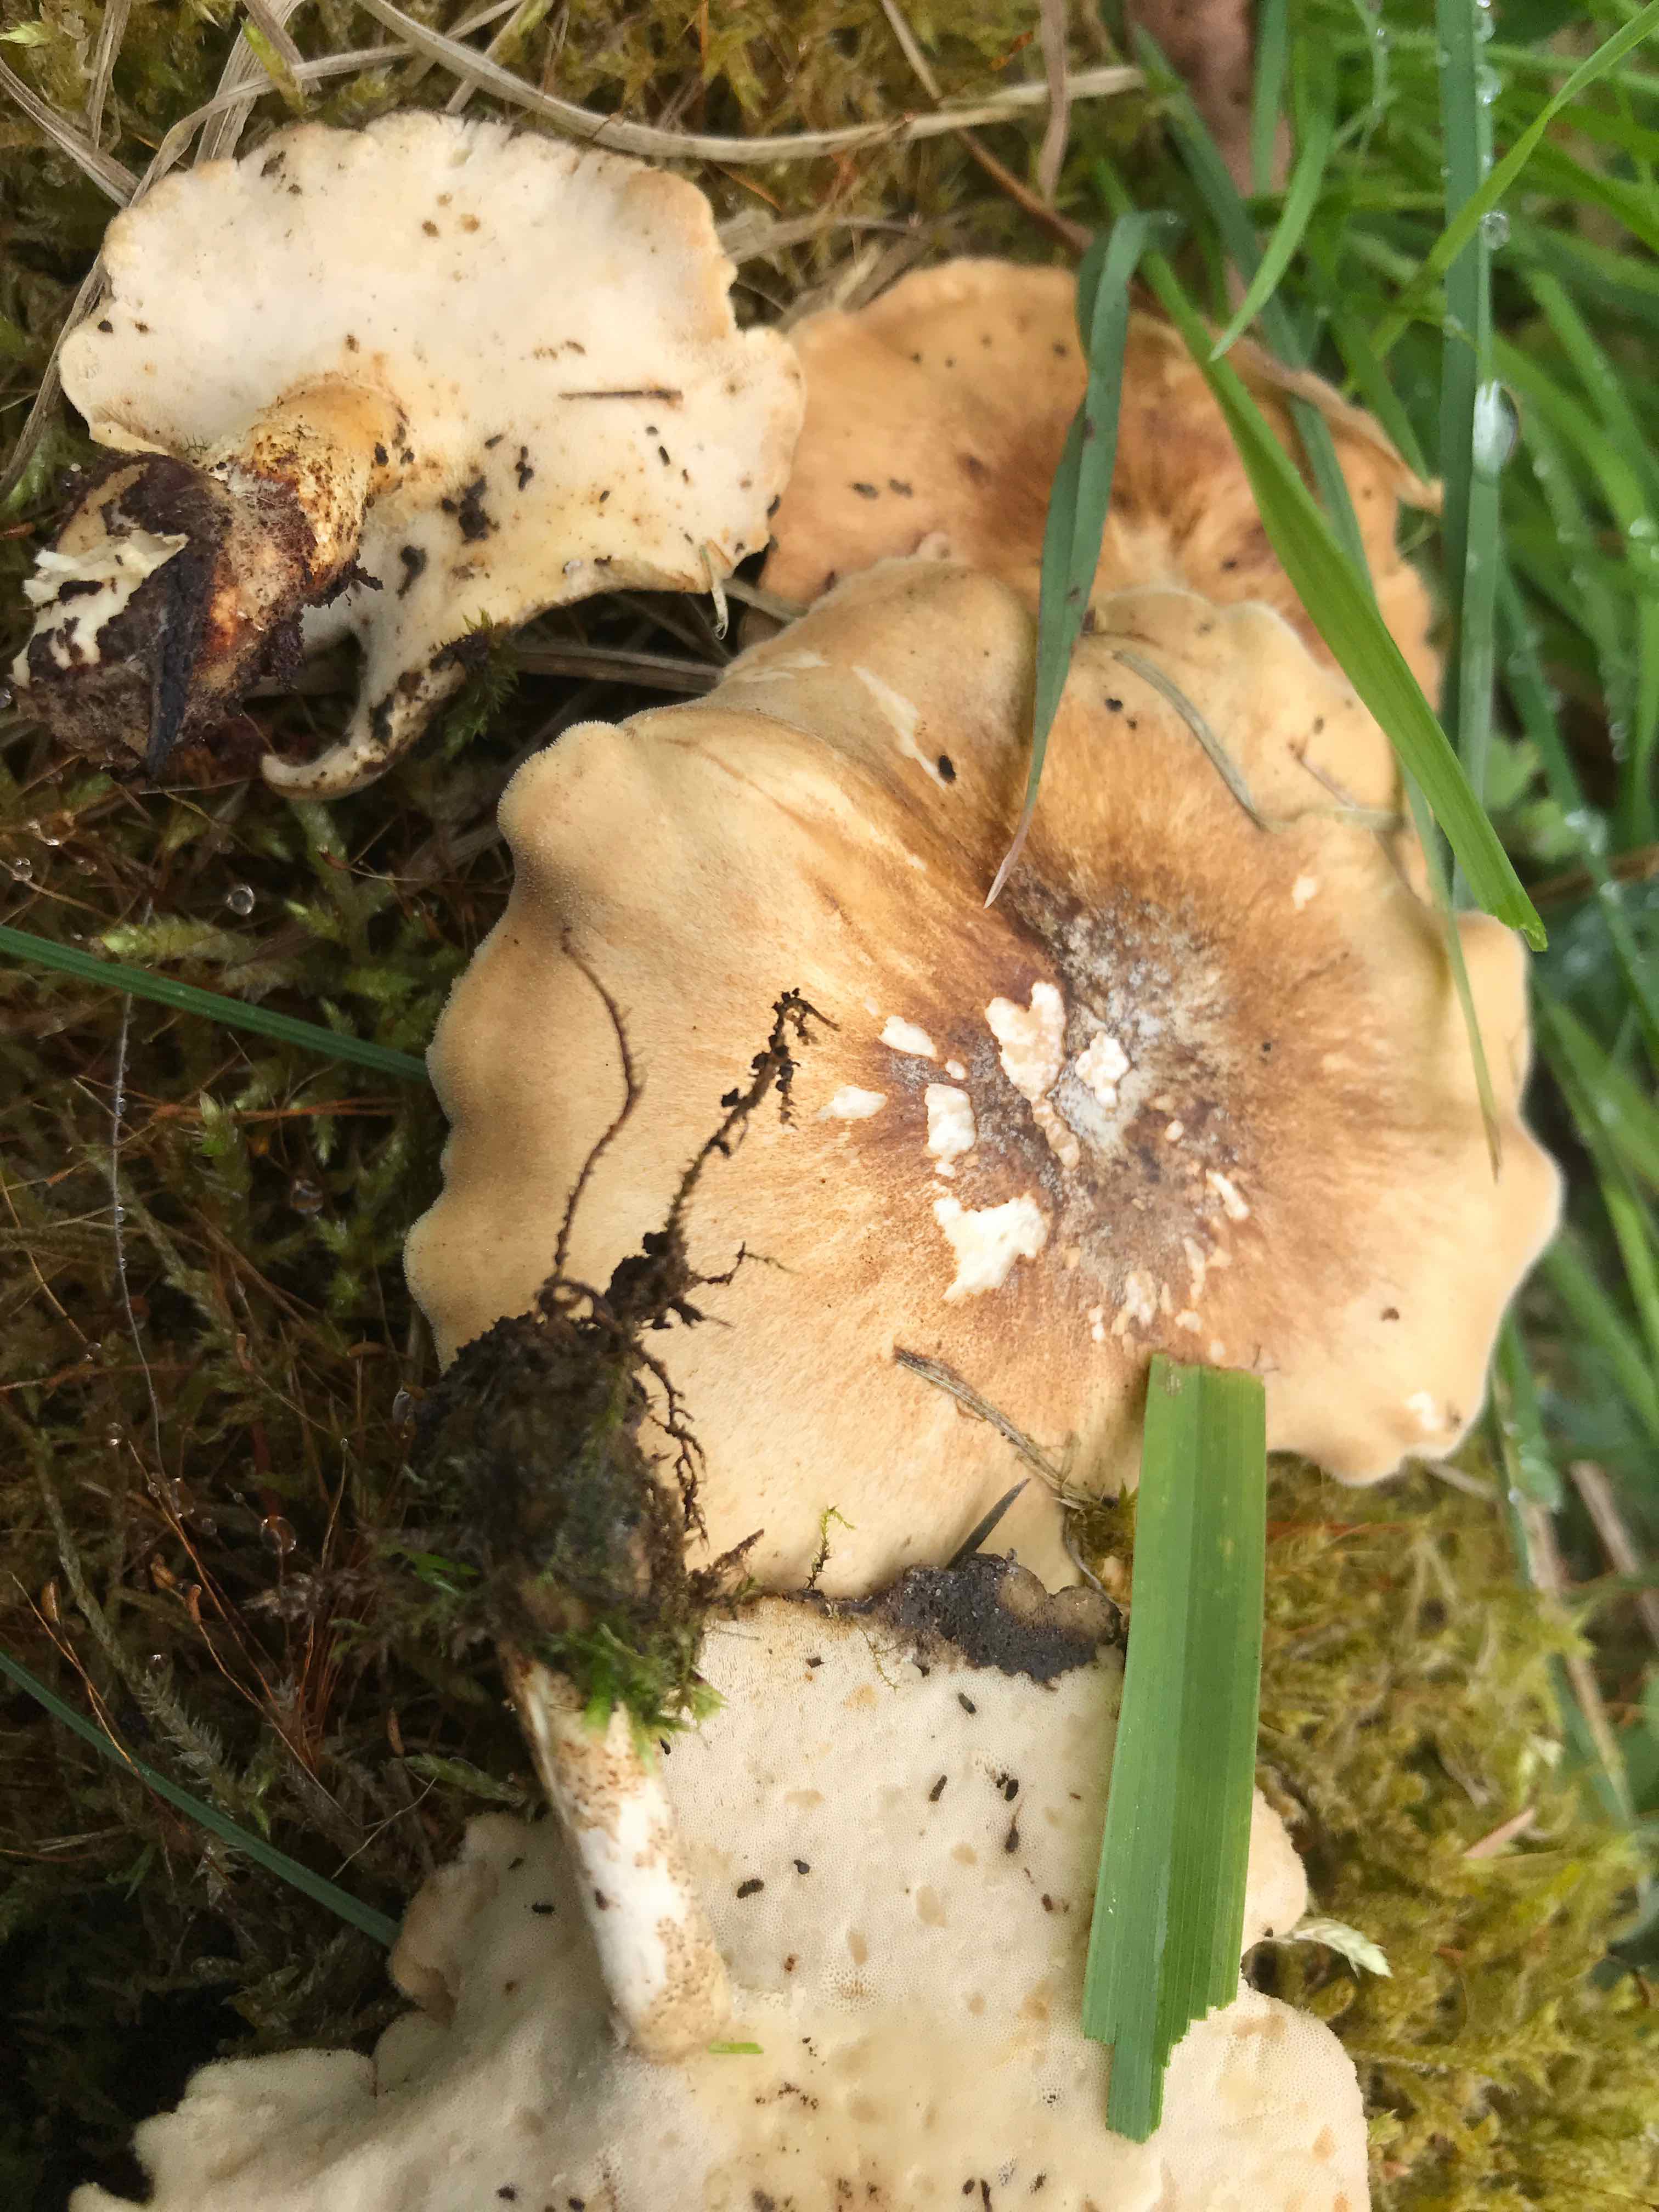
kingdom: Fungi
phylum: Basidiomycota
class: Agaricomycetes
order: Polyporales
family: Polyporaceae
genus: Lentinus
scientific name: Lentinus substrictus
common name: forårs-stilkporesvamp
